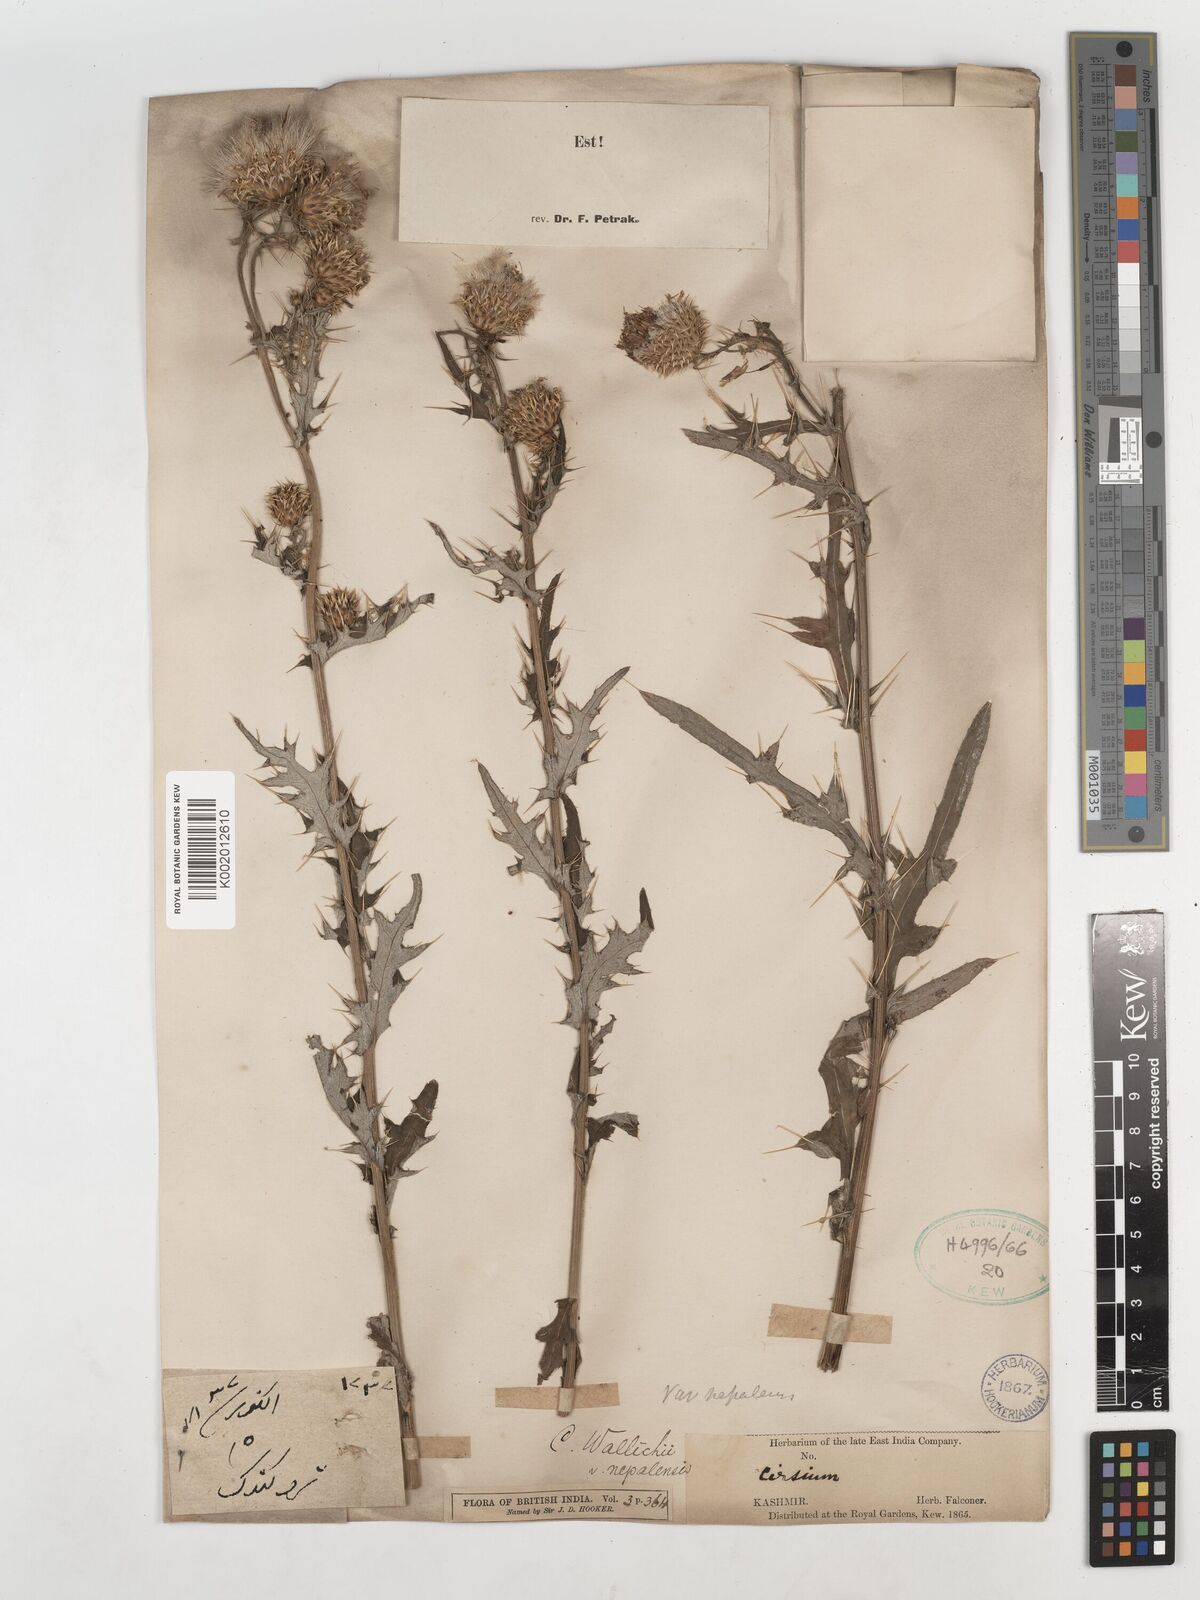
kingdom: Plantae
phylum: Tracheophyta
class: Magnoliopsida
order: Asterales
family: Asteraceae
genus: Cirsium
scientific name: Cirsium wallichii
